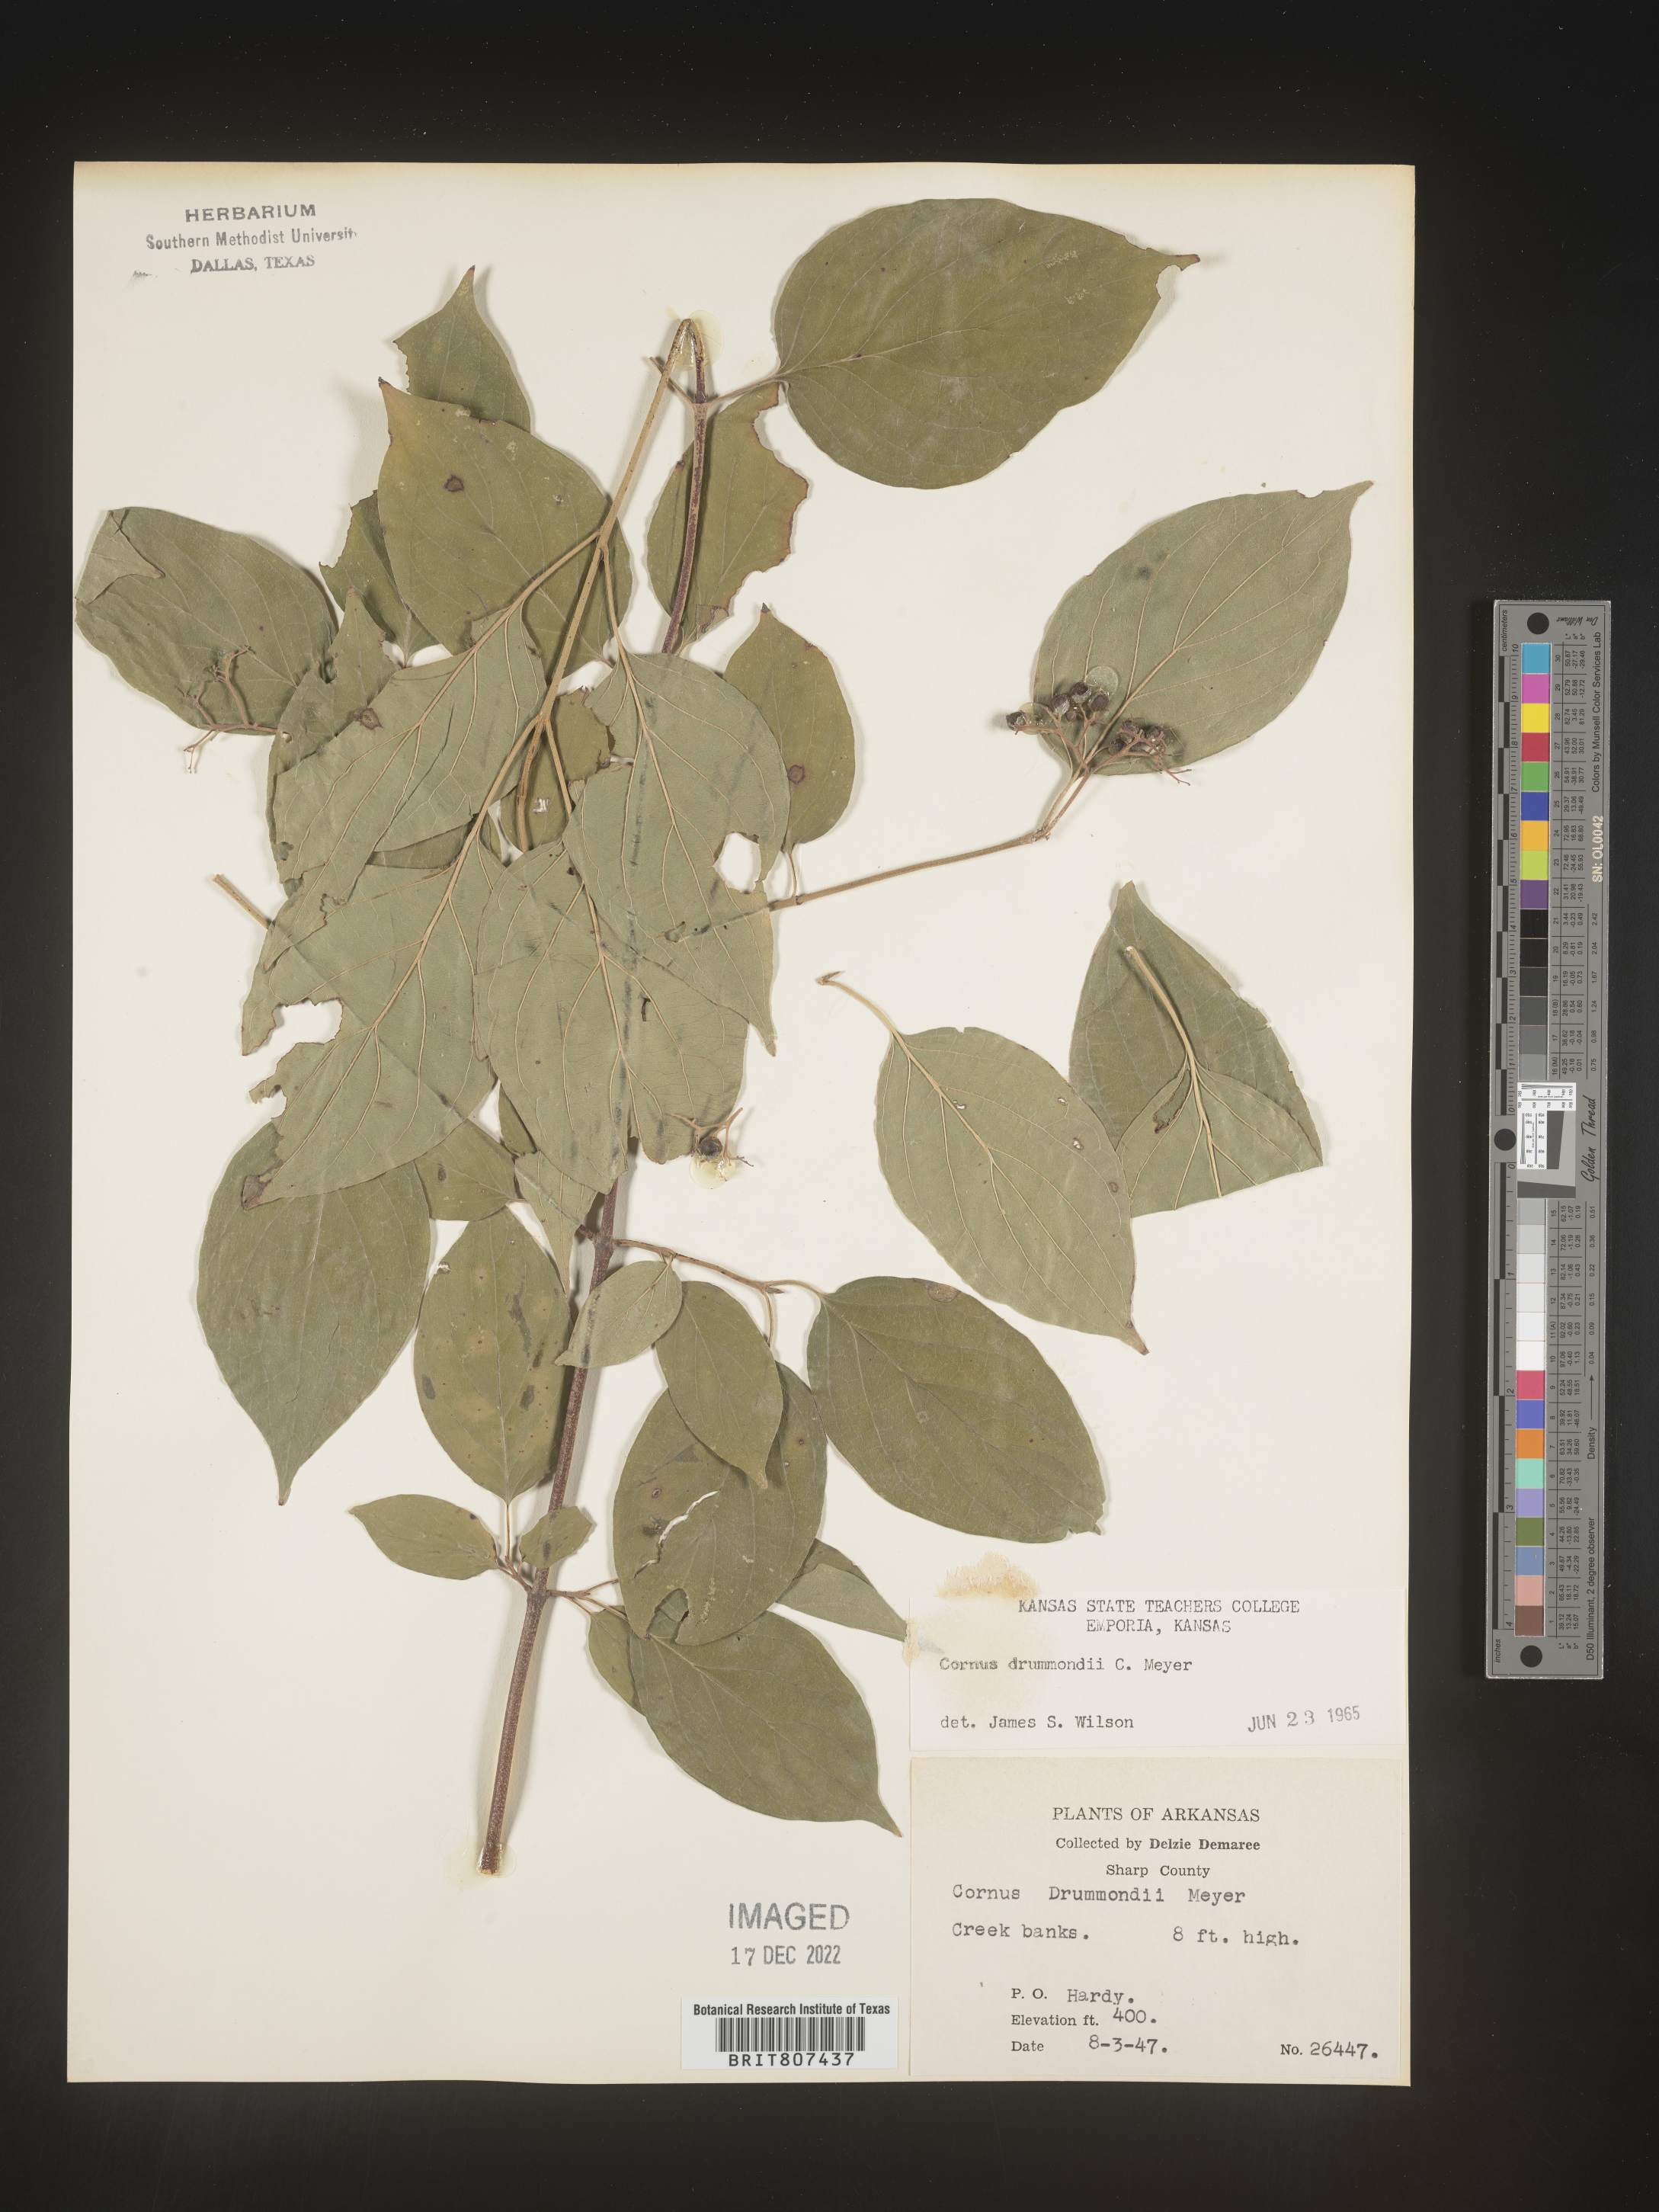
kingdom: Plantae
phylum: Tracheophyta
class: Magnoliopsida
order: Cornales
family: Cornaceae
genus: Cornus
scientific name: Cornus drummondii
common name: Rough-leaf dogwood
